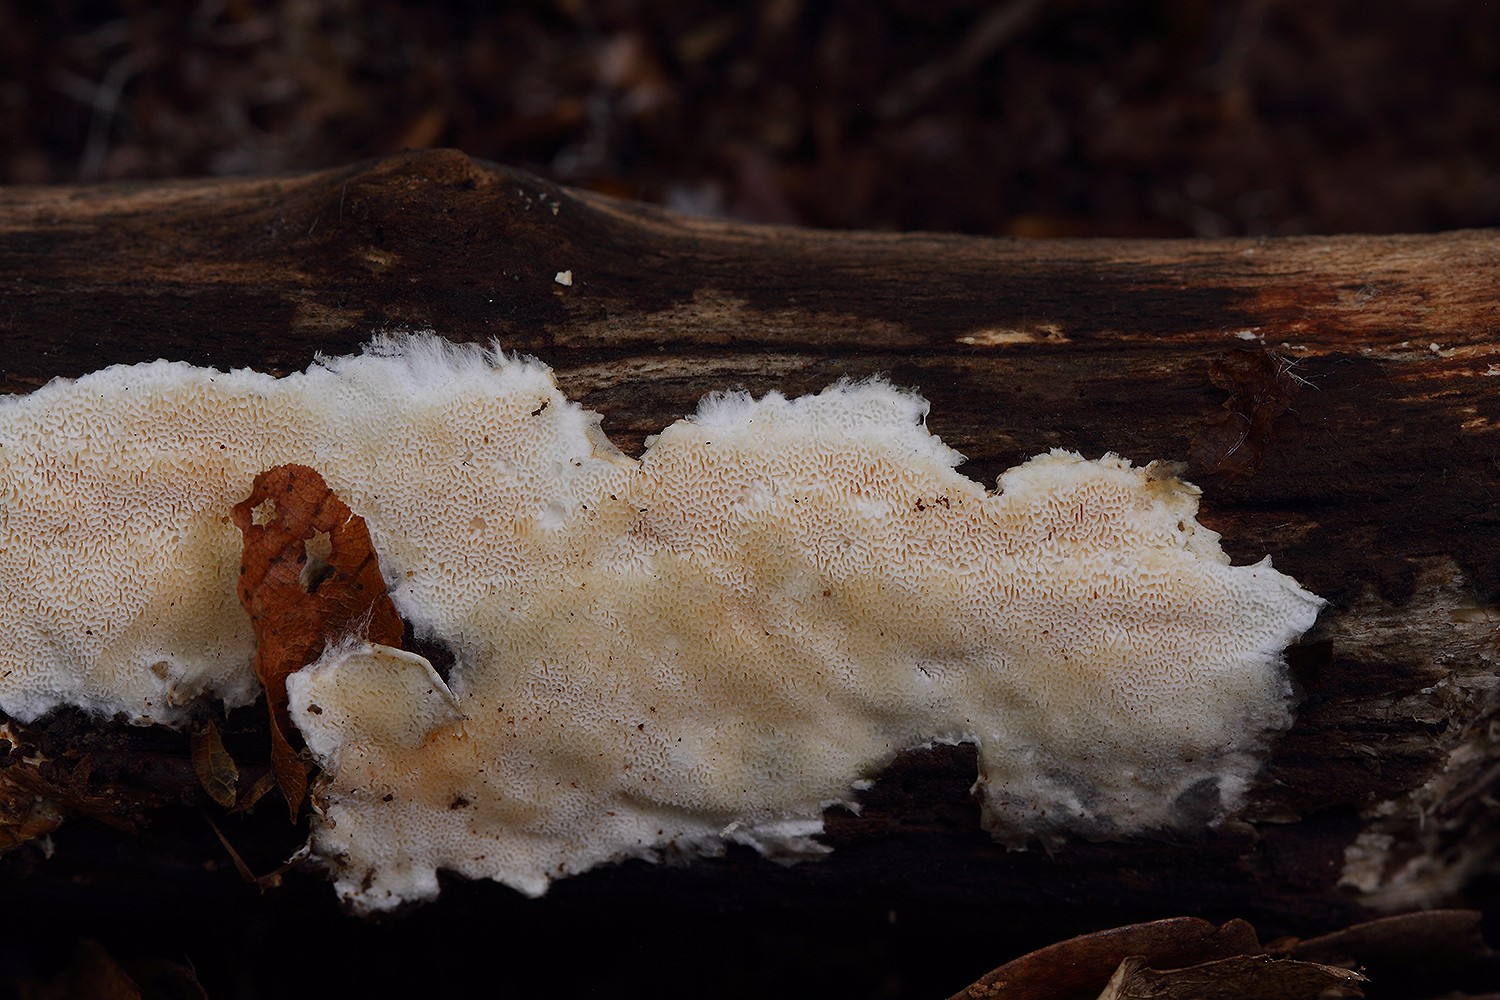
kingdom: Fungi
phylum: Basidiomycota
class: Agaricomycetes
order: Polyporales
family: Steccherinaceae
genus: Junghuhnia
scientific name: Junghuhnia nitida
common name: almindelig skønporesvamp
